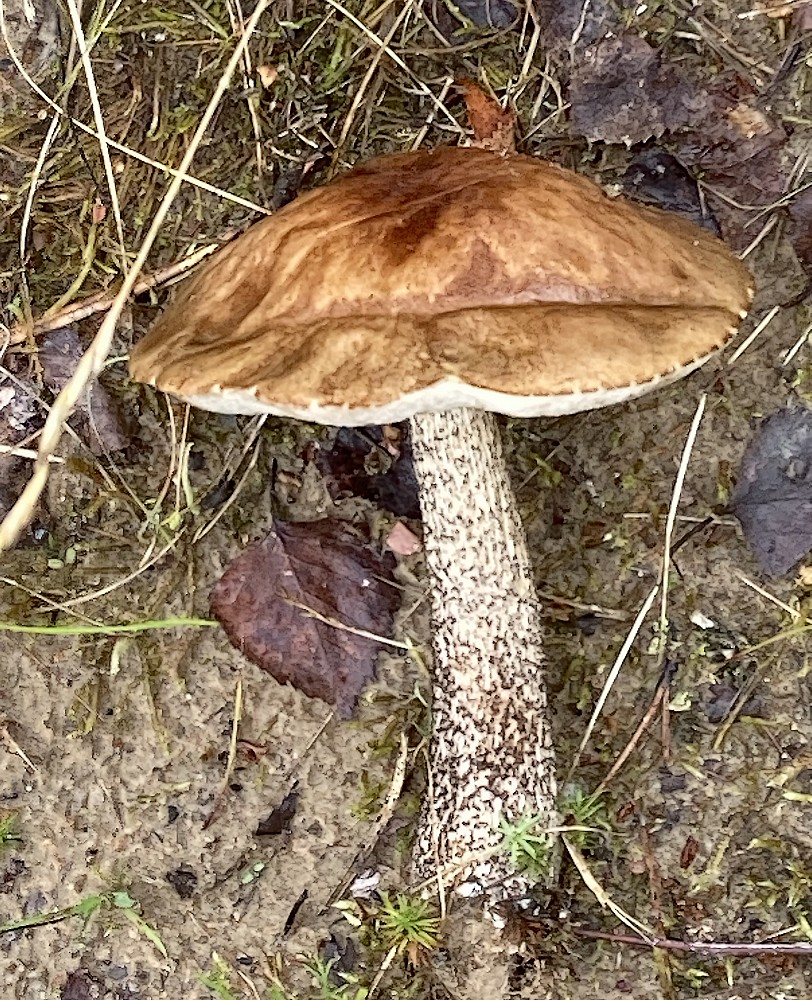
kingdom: Fungi
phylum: Basidiomycota
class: Agaricomycetes
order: Boletales
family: Boletaceae
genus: Leccinum
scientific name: Leccinum scabrum
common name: brun skælrørhat
